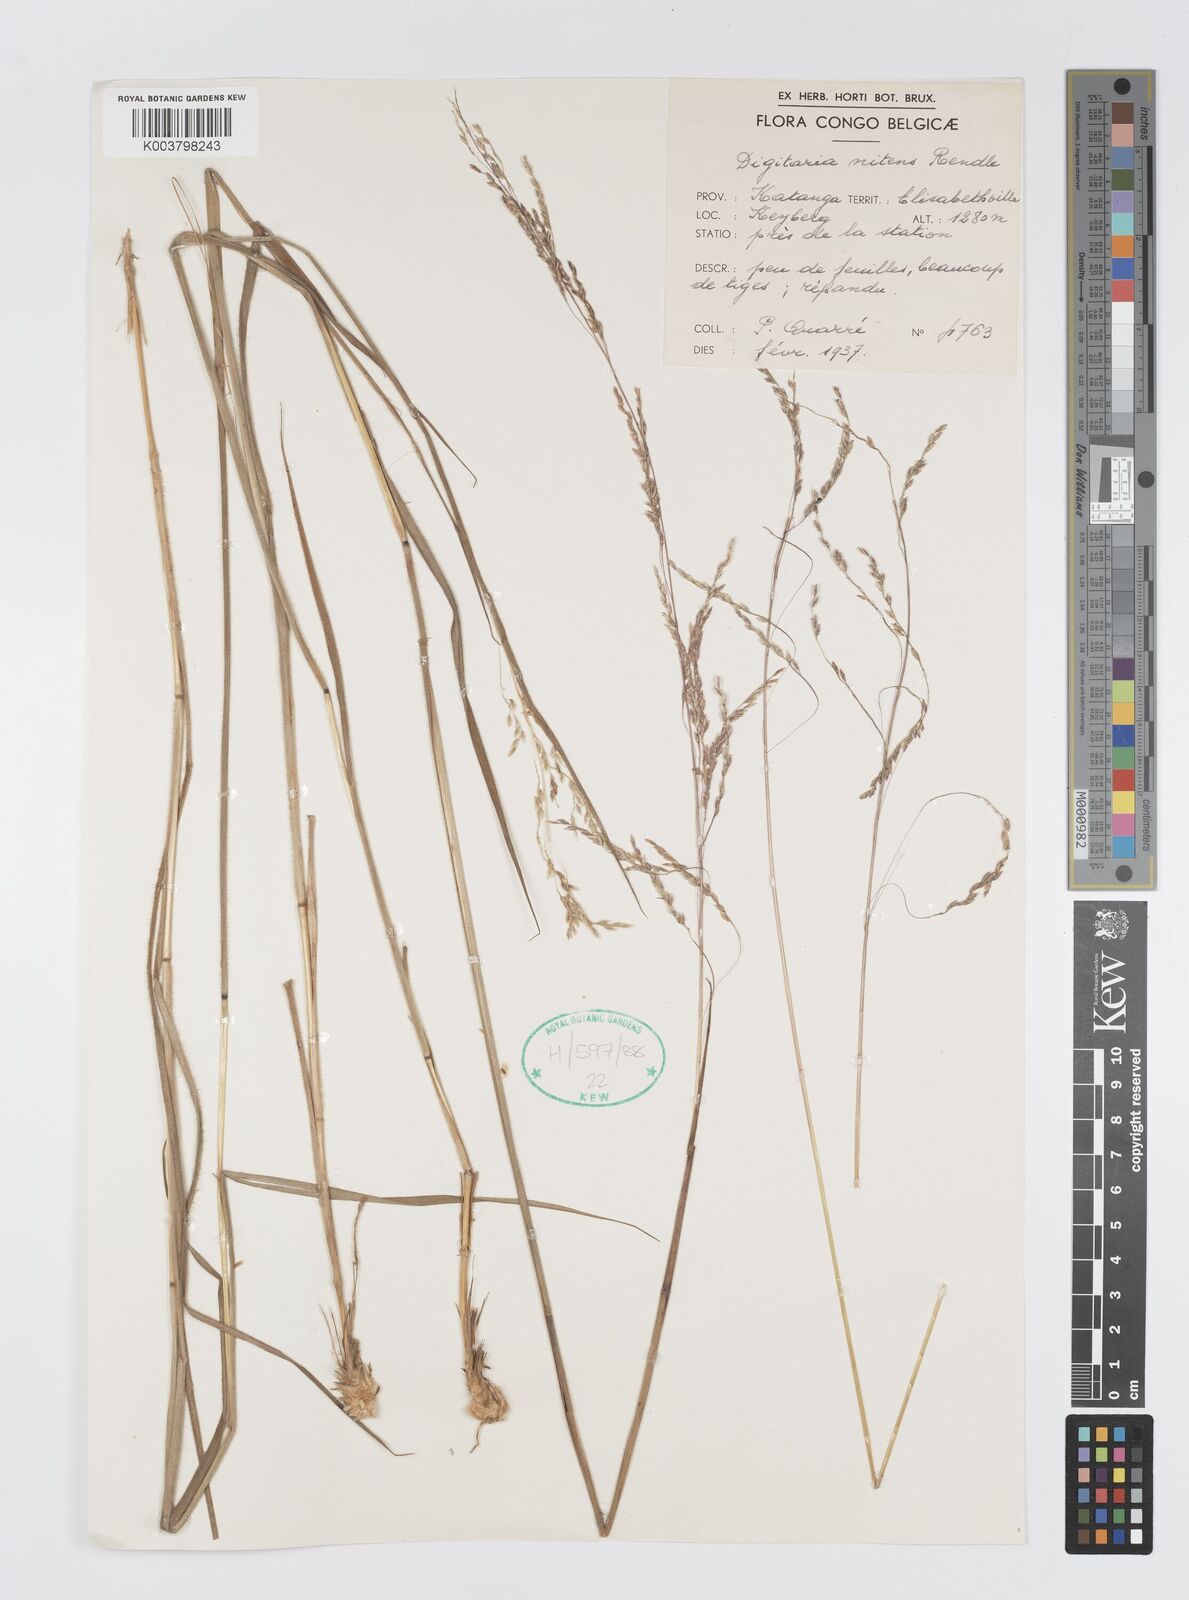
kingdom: Plantae
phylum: Tracheophyta
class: Liliopsida
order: Poales
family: Poaceae
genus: Digitaria
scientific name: Digitaria flaccida
